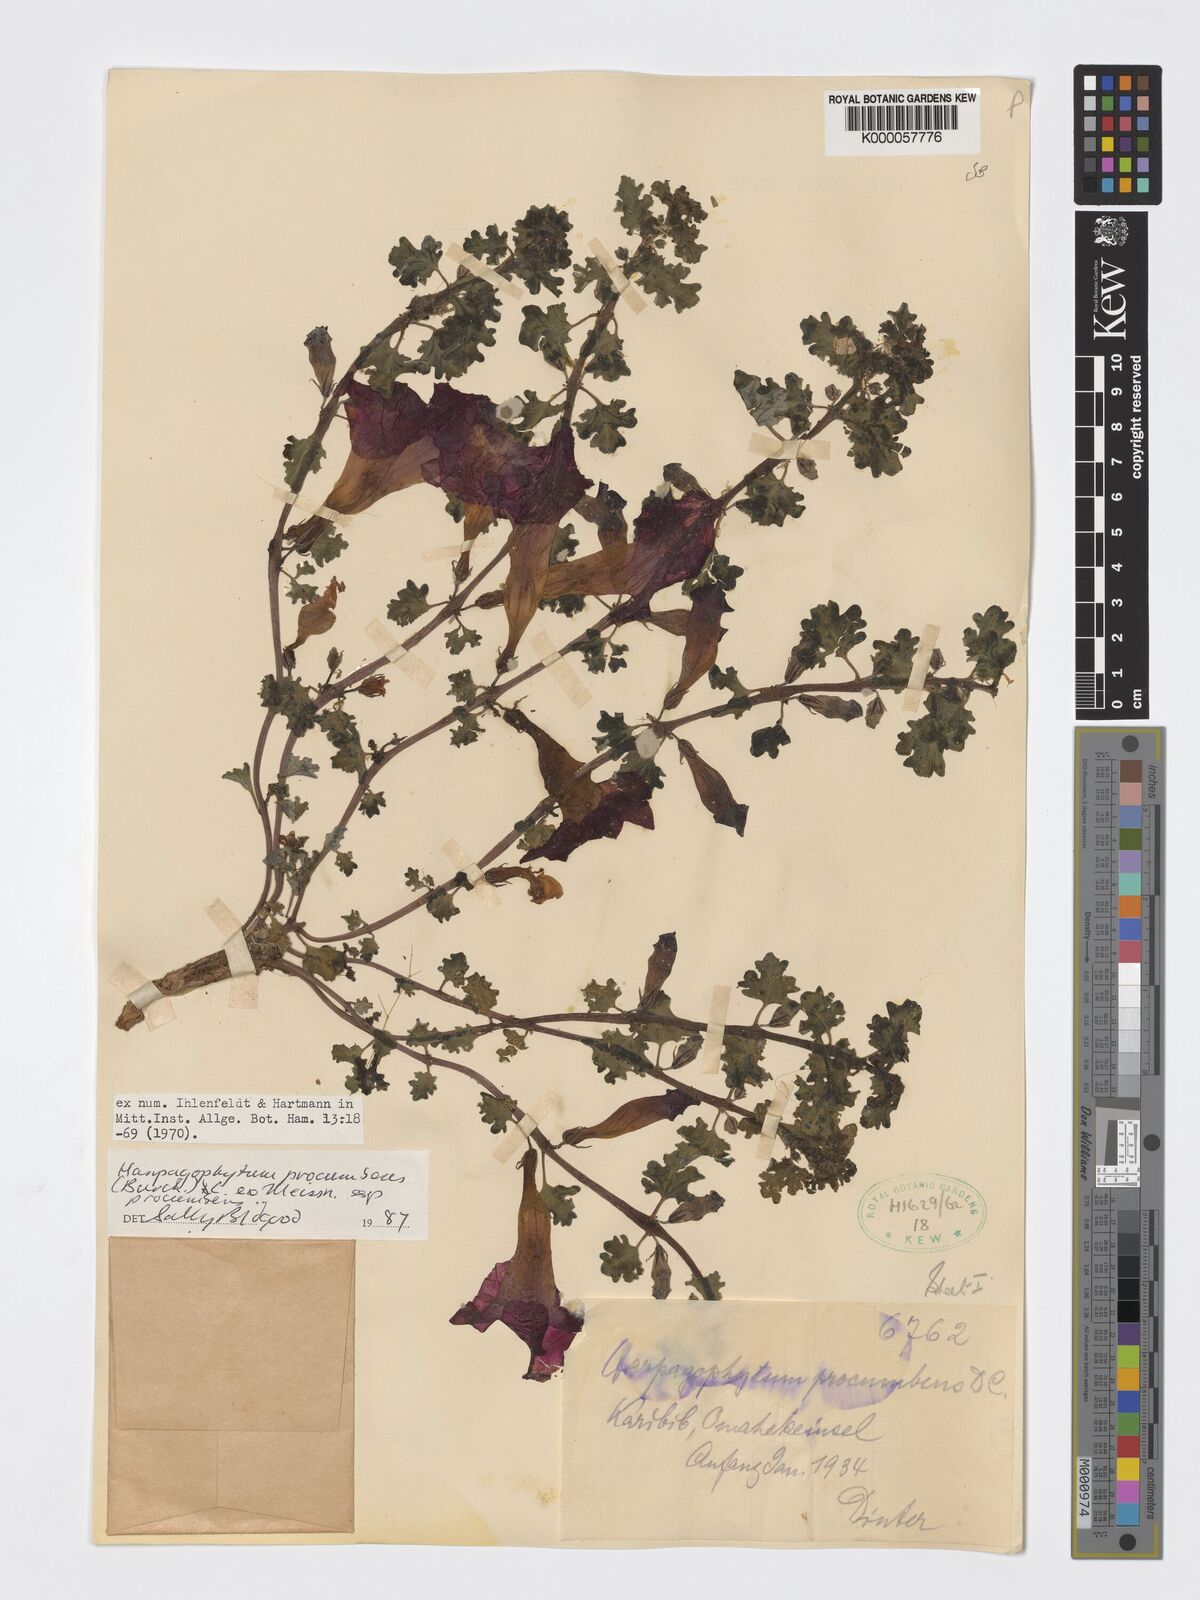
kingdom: Plantae
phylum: Tracheophyta
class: Magnoliopsida
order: Lamiales
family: Pedaliaceae
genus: Harpagophytum
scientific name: Harpagophytum procumbens
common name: Grappleplant
